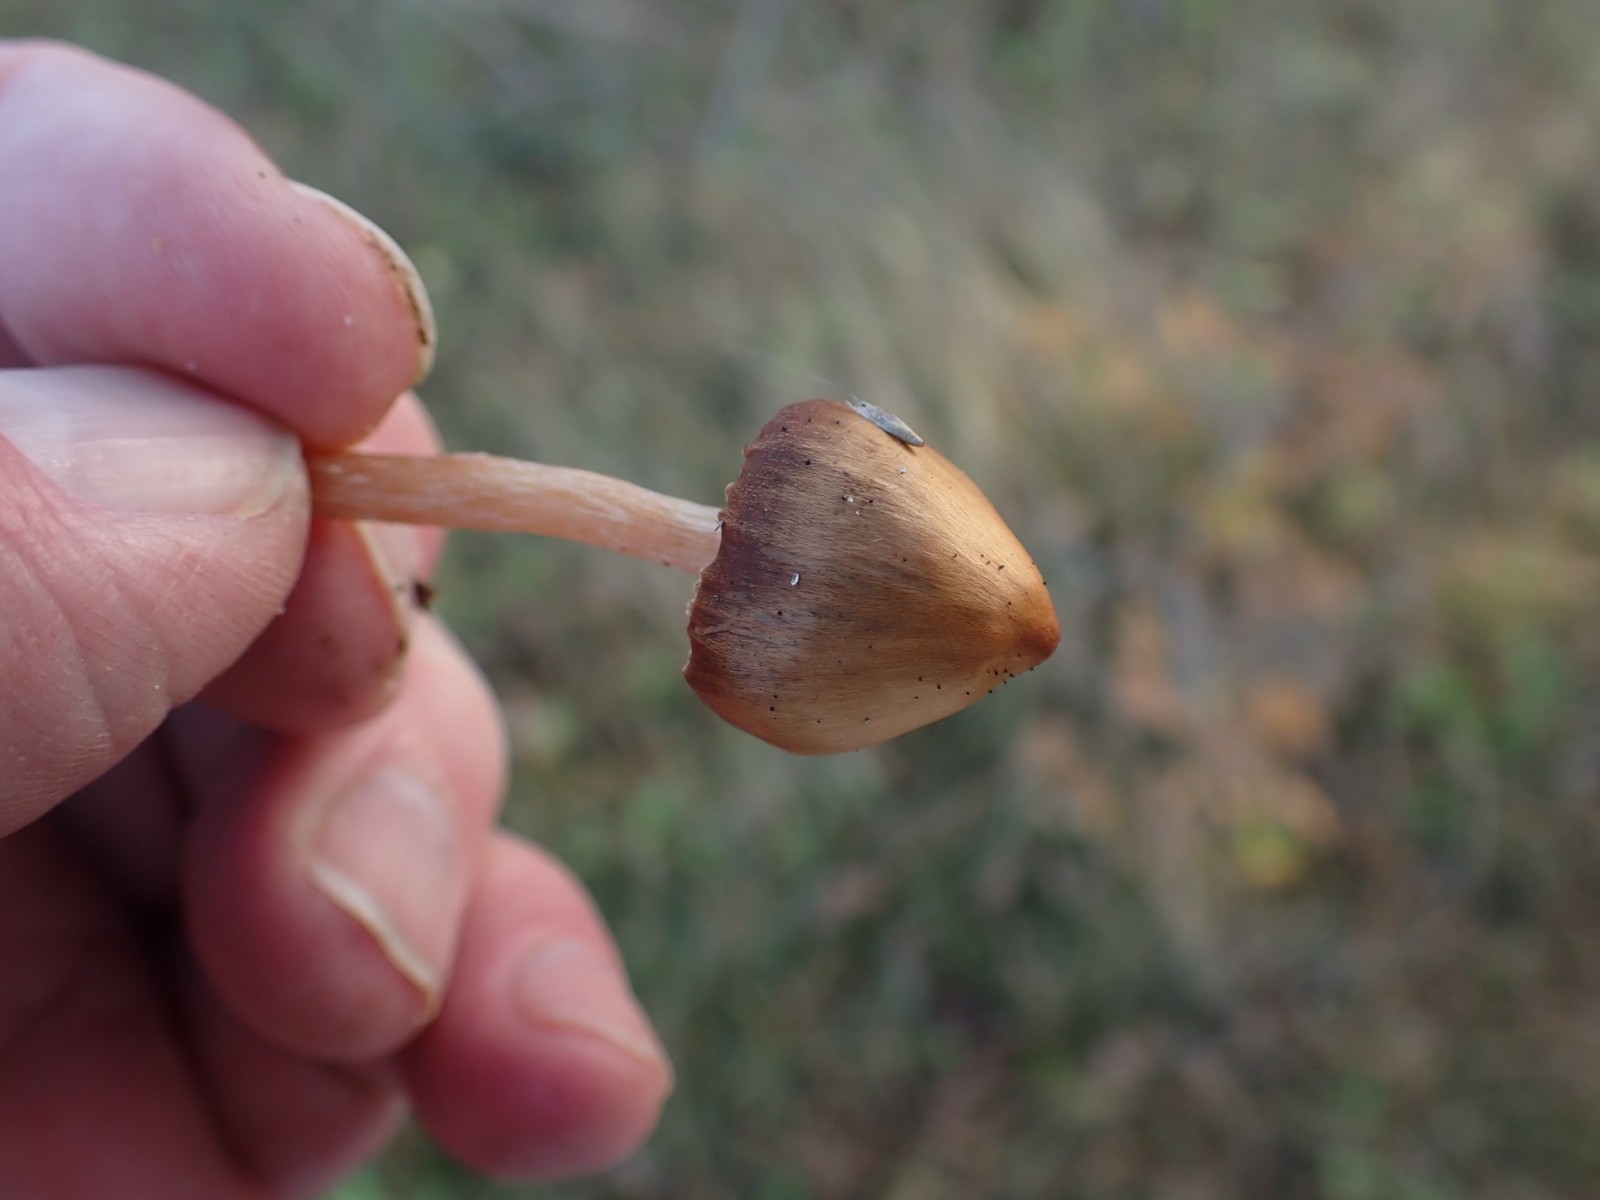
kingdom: Fungi
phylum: Basidiomycota
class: Agaricomycetes
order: Agaricales
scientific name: Agaricales
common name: champignonordenen
